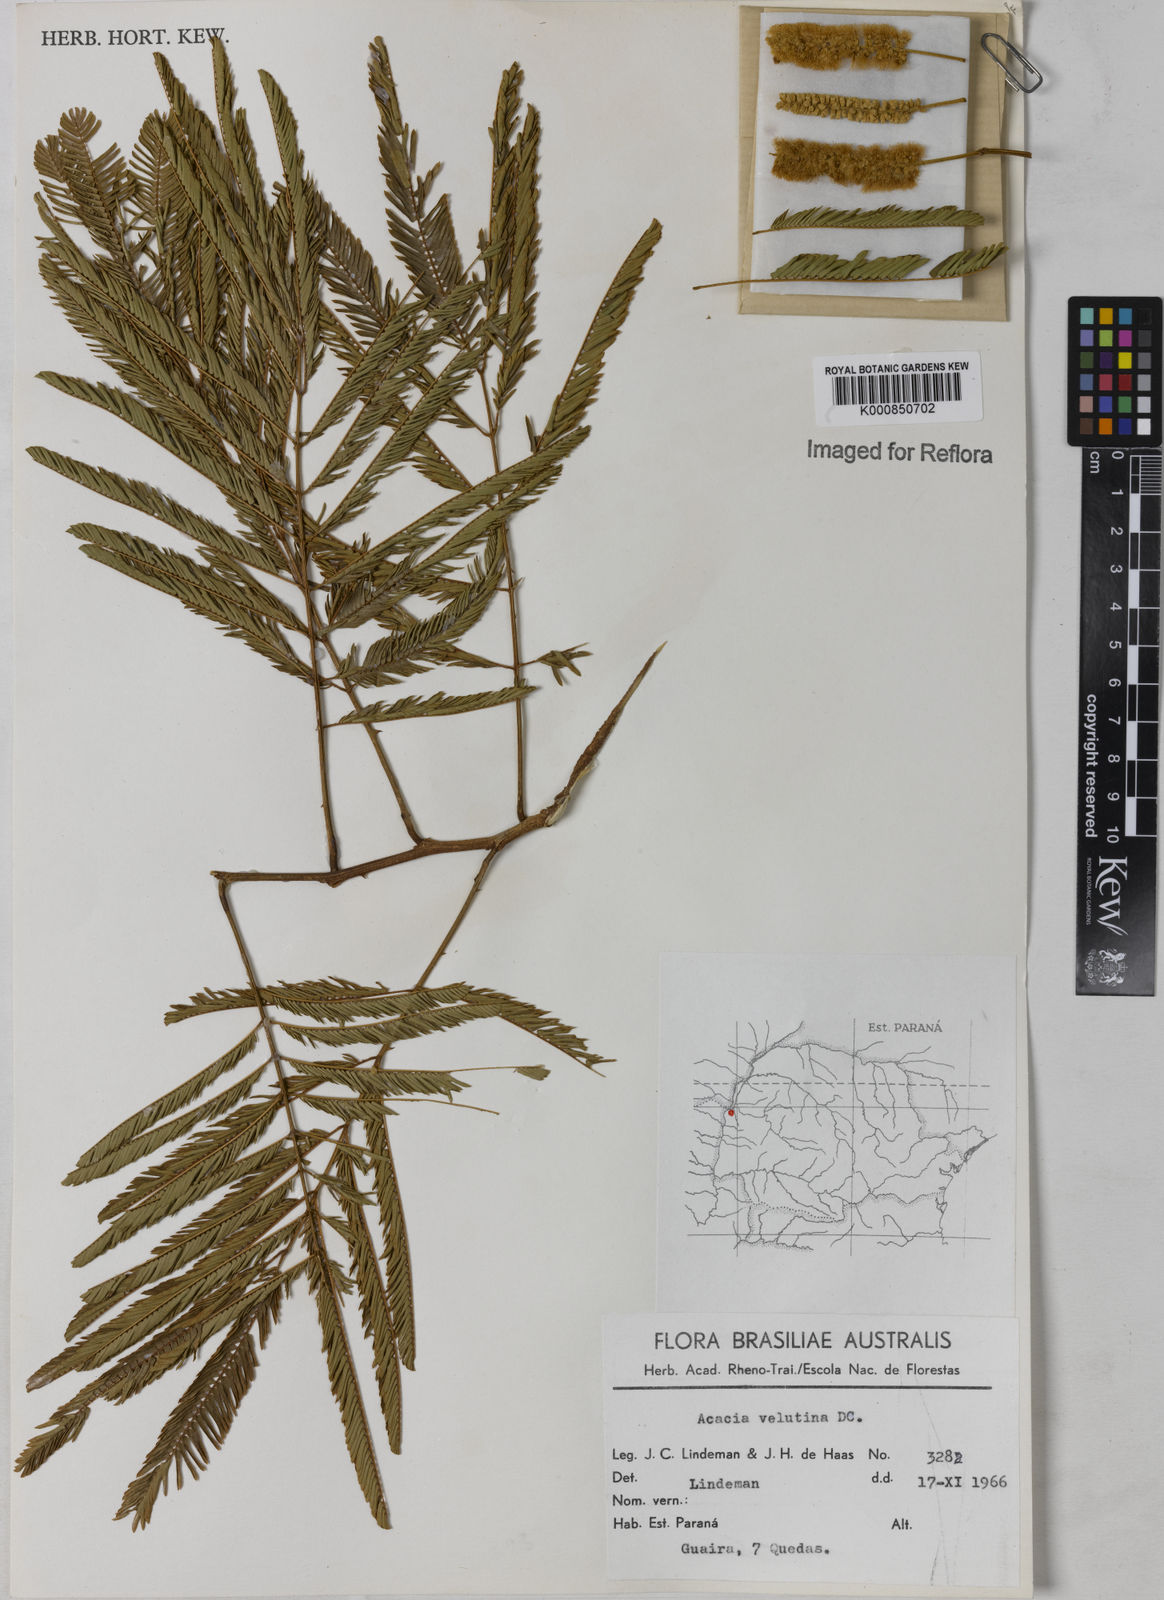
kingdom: Plantae
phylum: Tracheophyta
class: Magnoliopsida
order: Fabales
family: Fabaceae
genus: Senegalia
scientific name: Senegalia velutina
